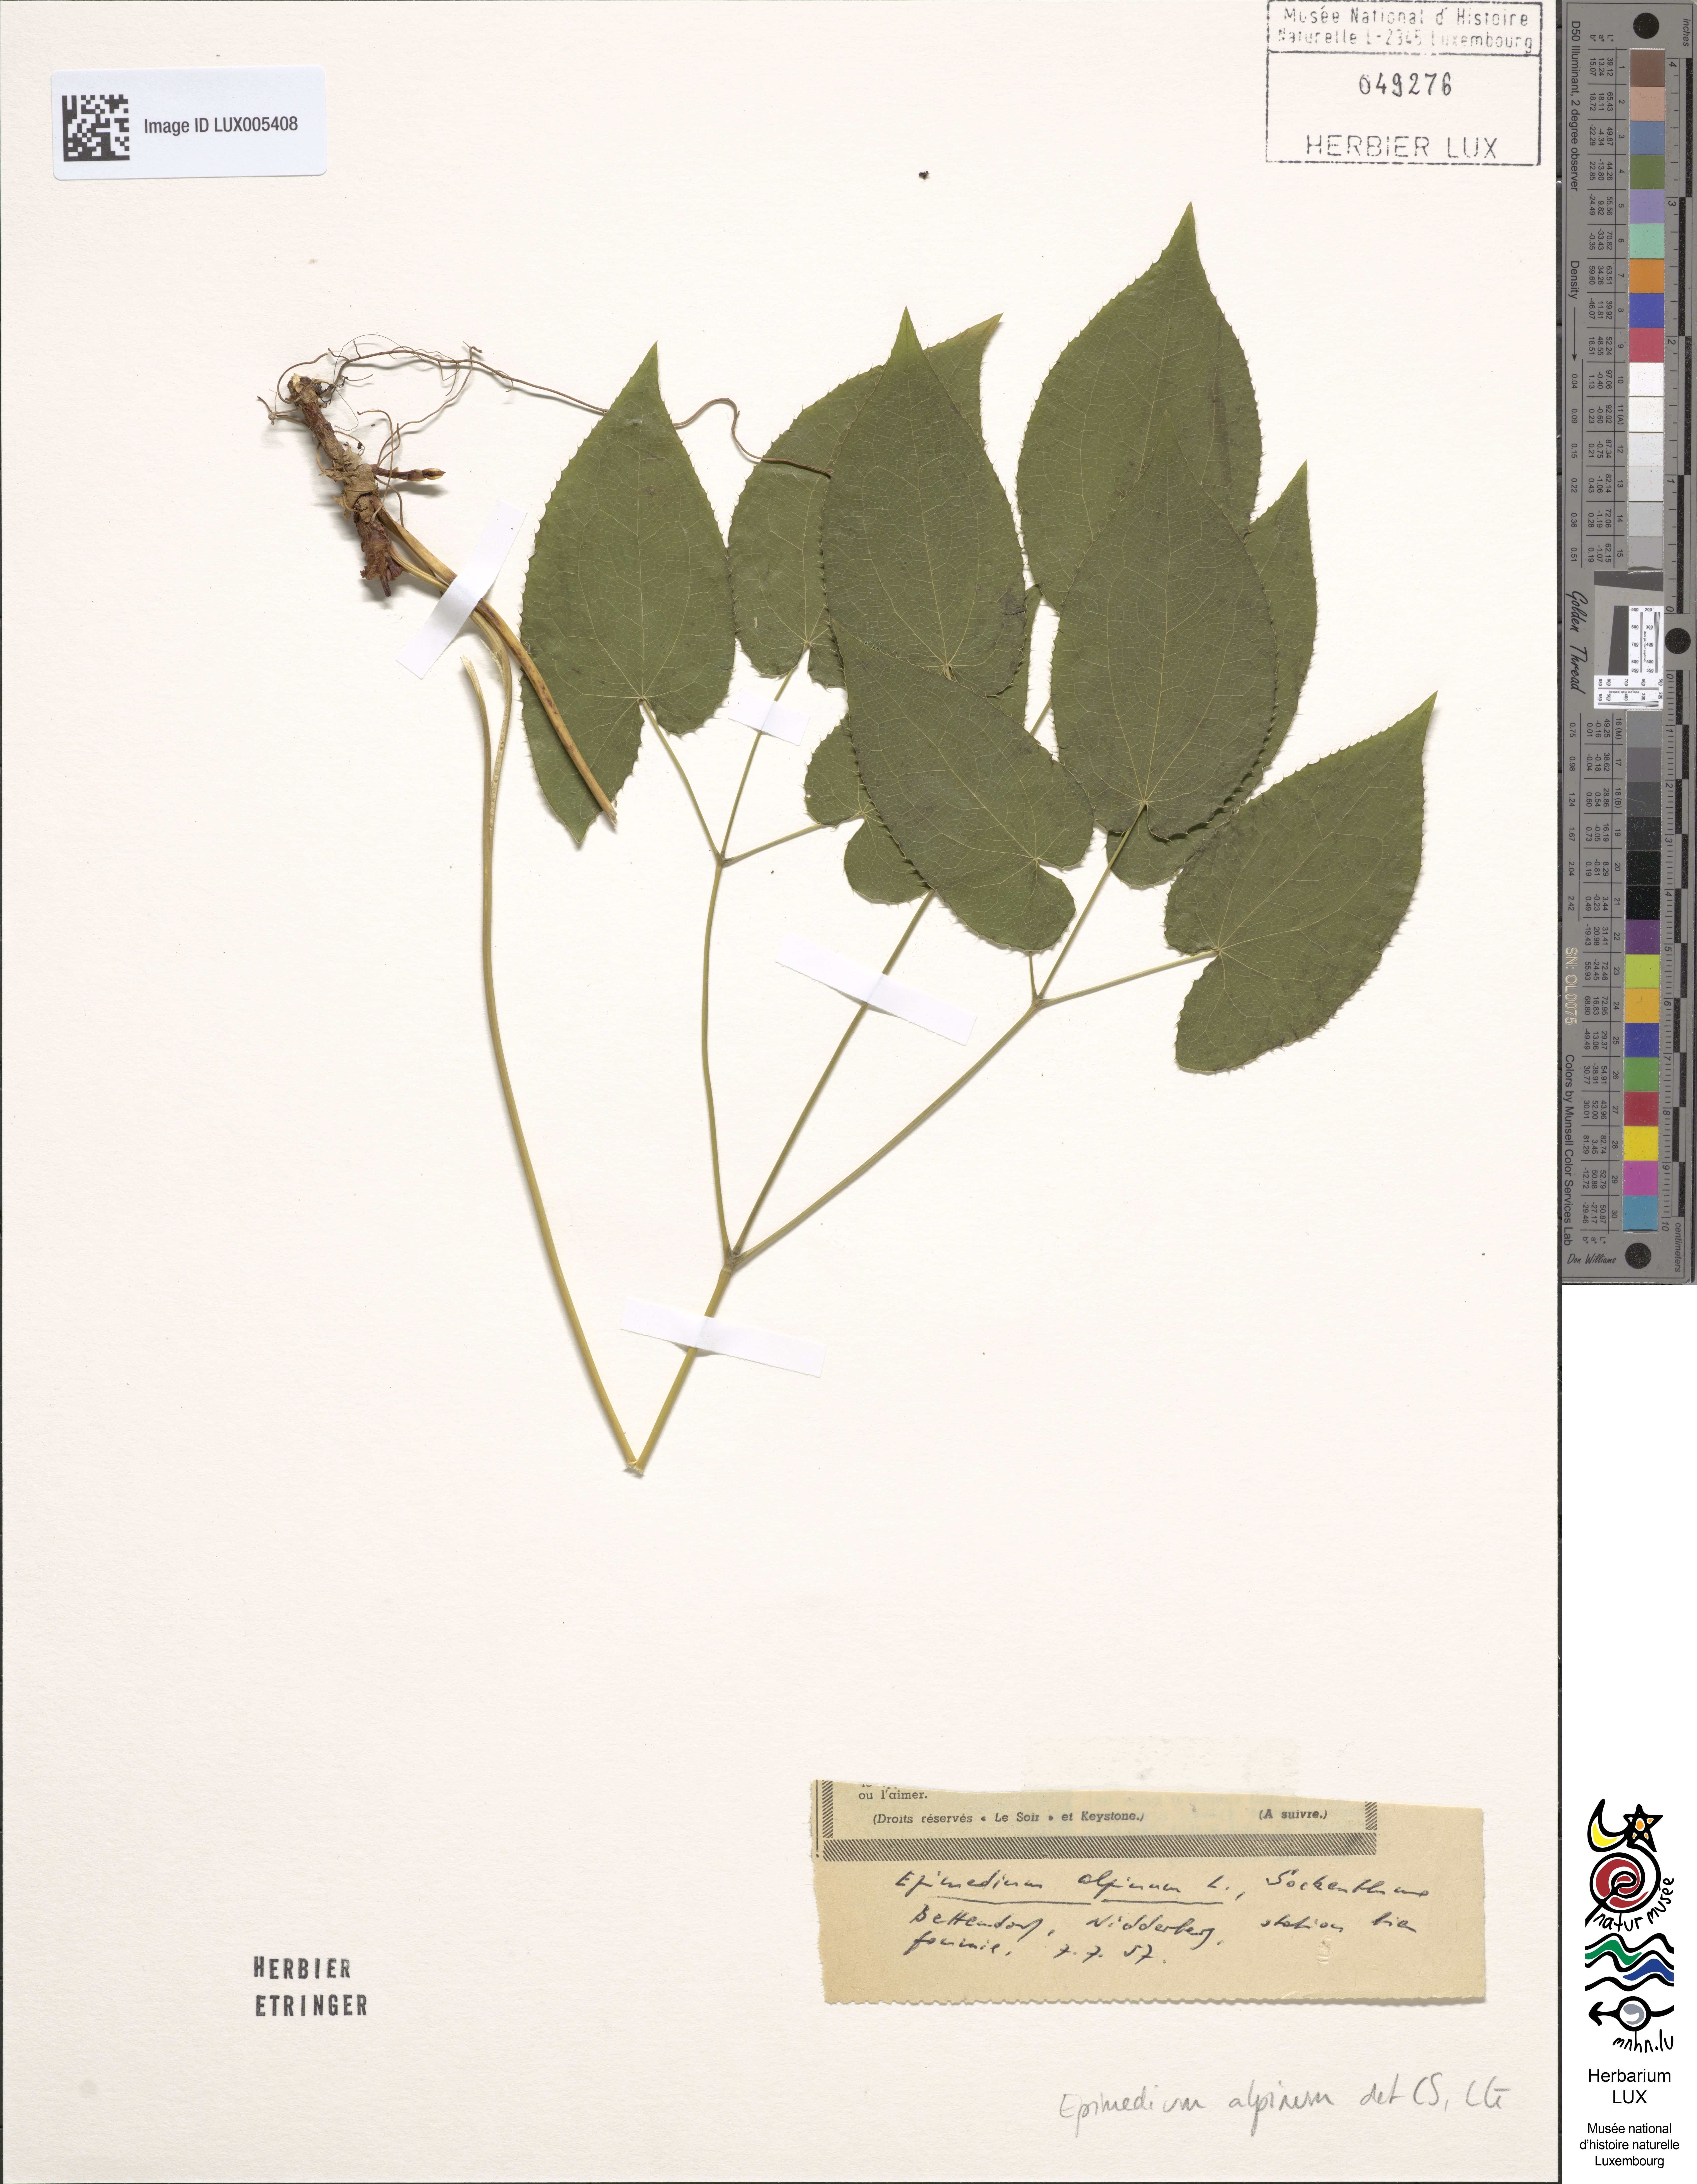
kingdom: Plantae
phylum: Tracheophyta
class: Magnoliopsida
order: Ranunculales
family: Berberidaceae
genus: Epimedium
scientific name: Epimedium alpinum
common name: Barrenwort
